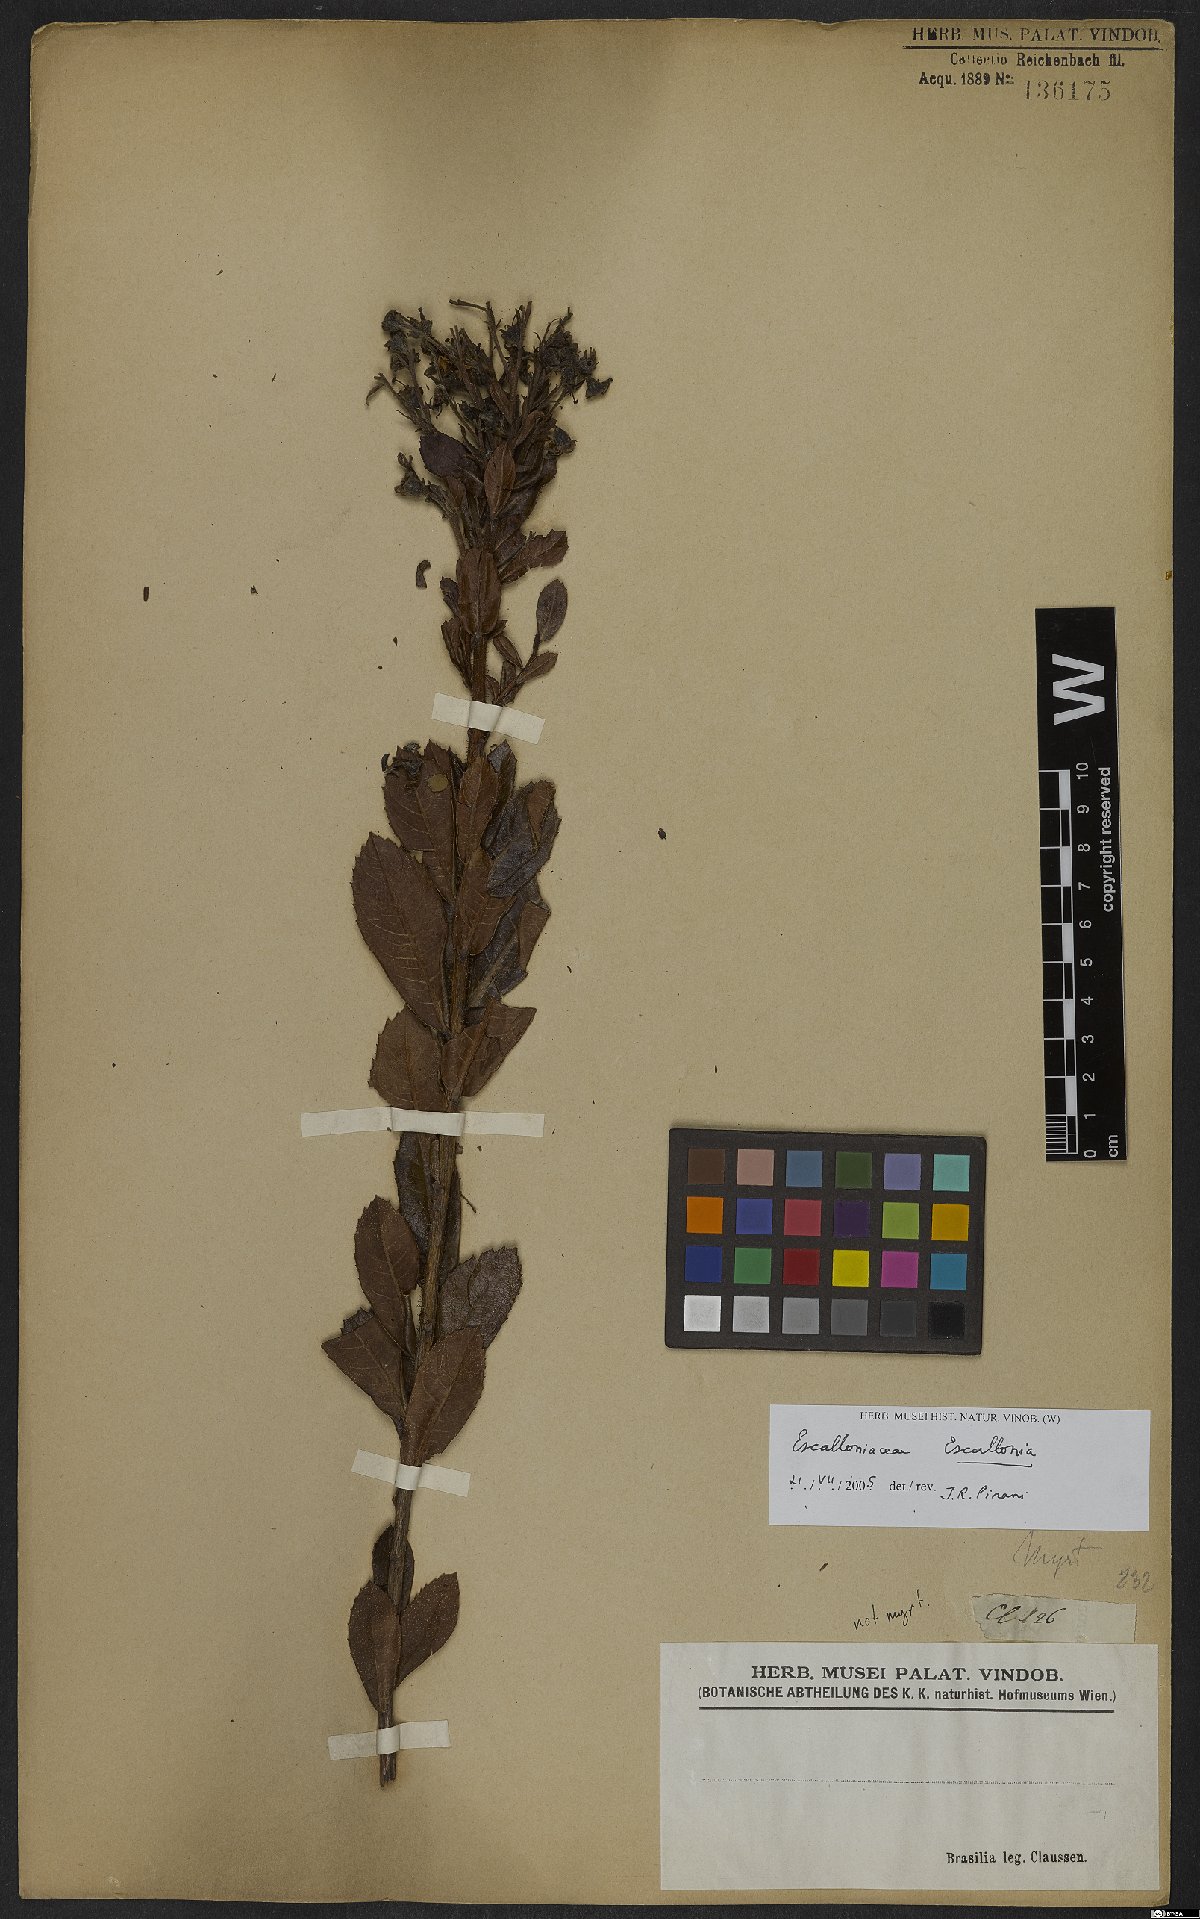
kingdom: Plantae
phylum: Tracheophyta
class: Magnoliopsida
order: Escalloniales
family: Escalloniaceae
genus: Escallonia
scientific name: Escallonia
